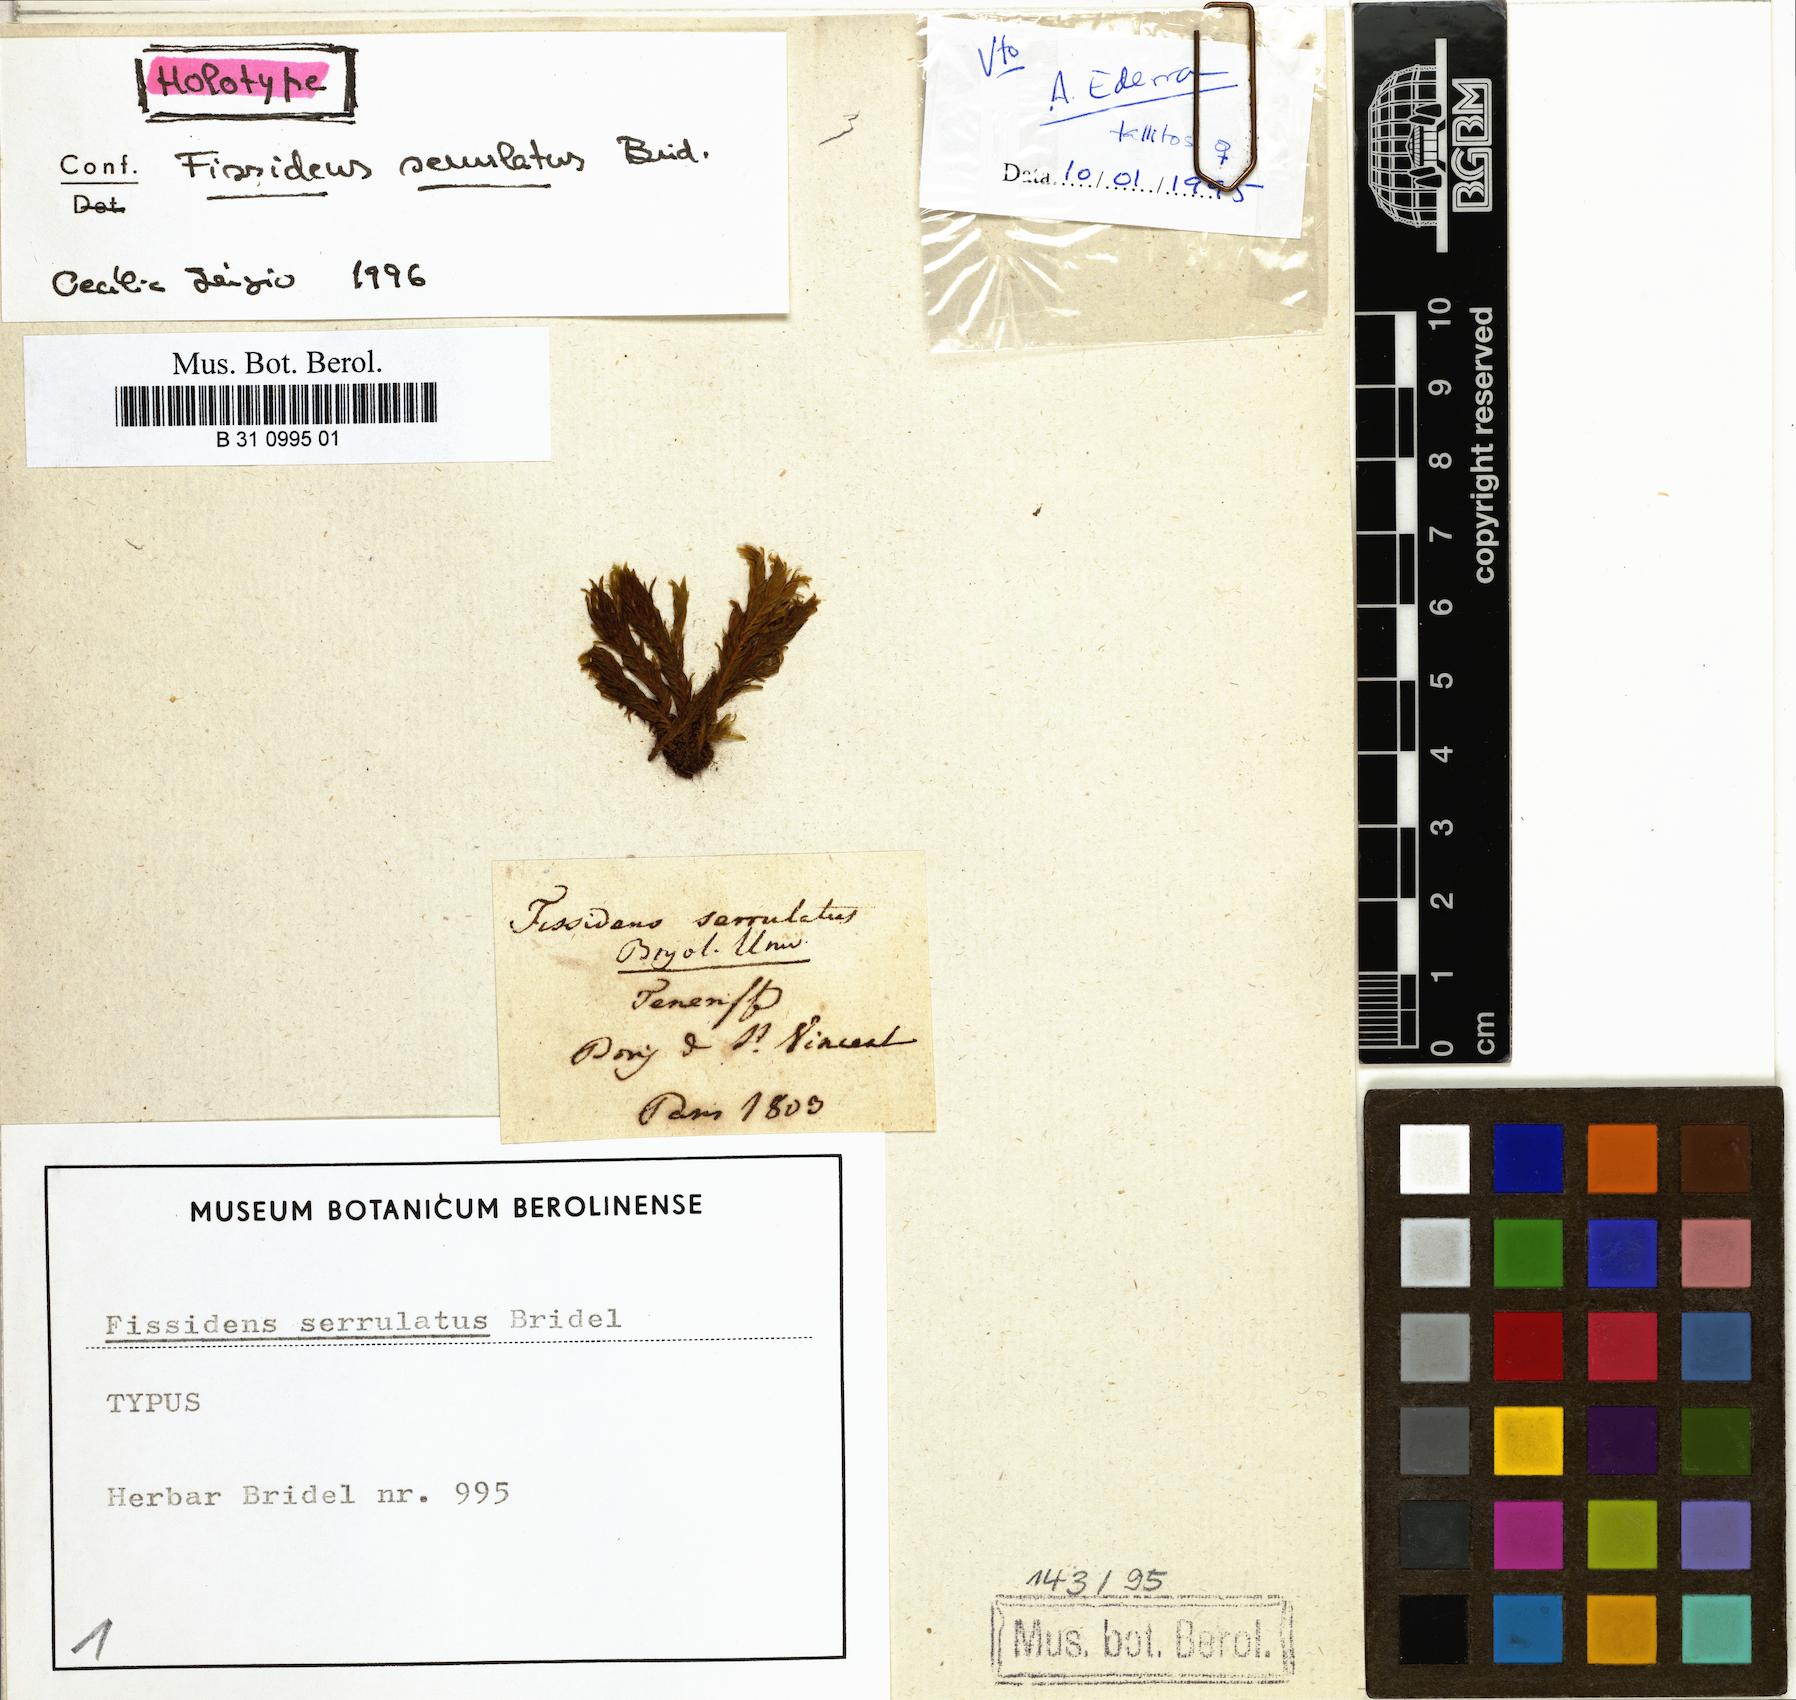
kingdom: Plantae
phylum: Bryophyta
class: Bryopsida
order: Dicranales
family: Fissidentaceae
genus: Fissidens
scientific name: Fissidens serrulatus
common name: Large atlantic pocket-moss
